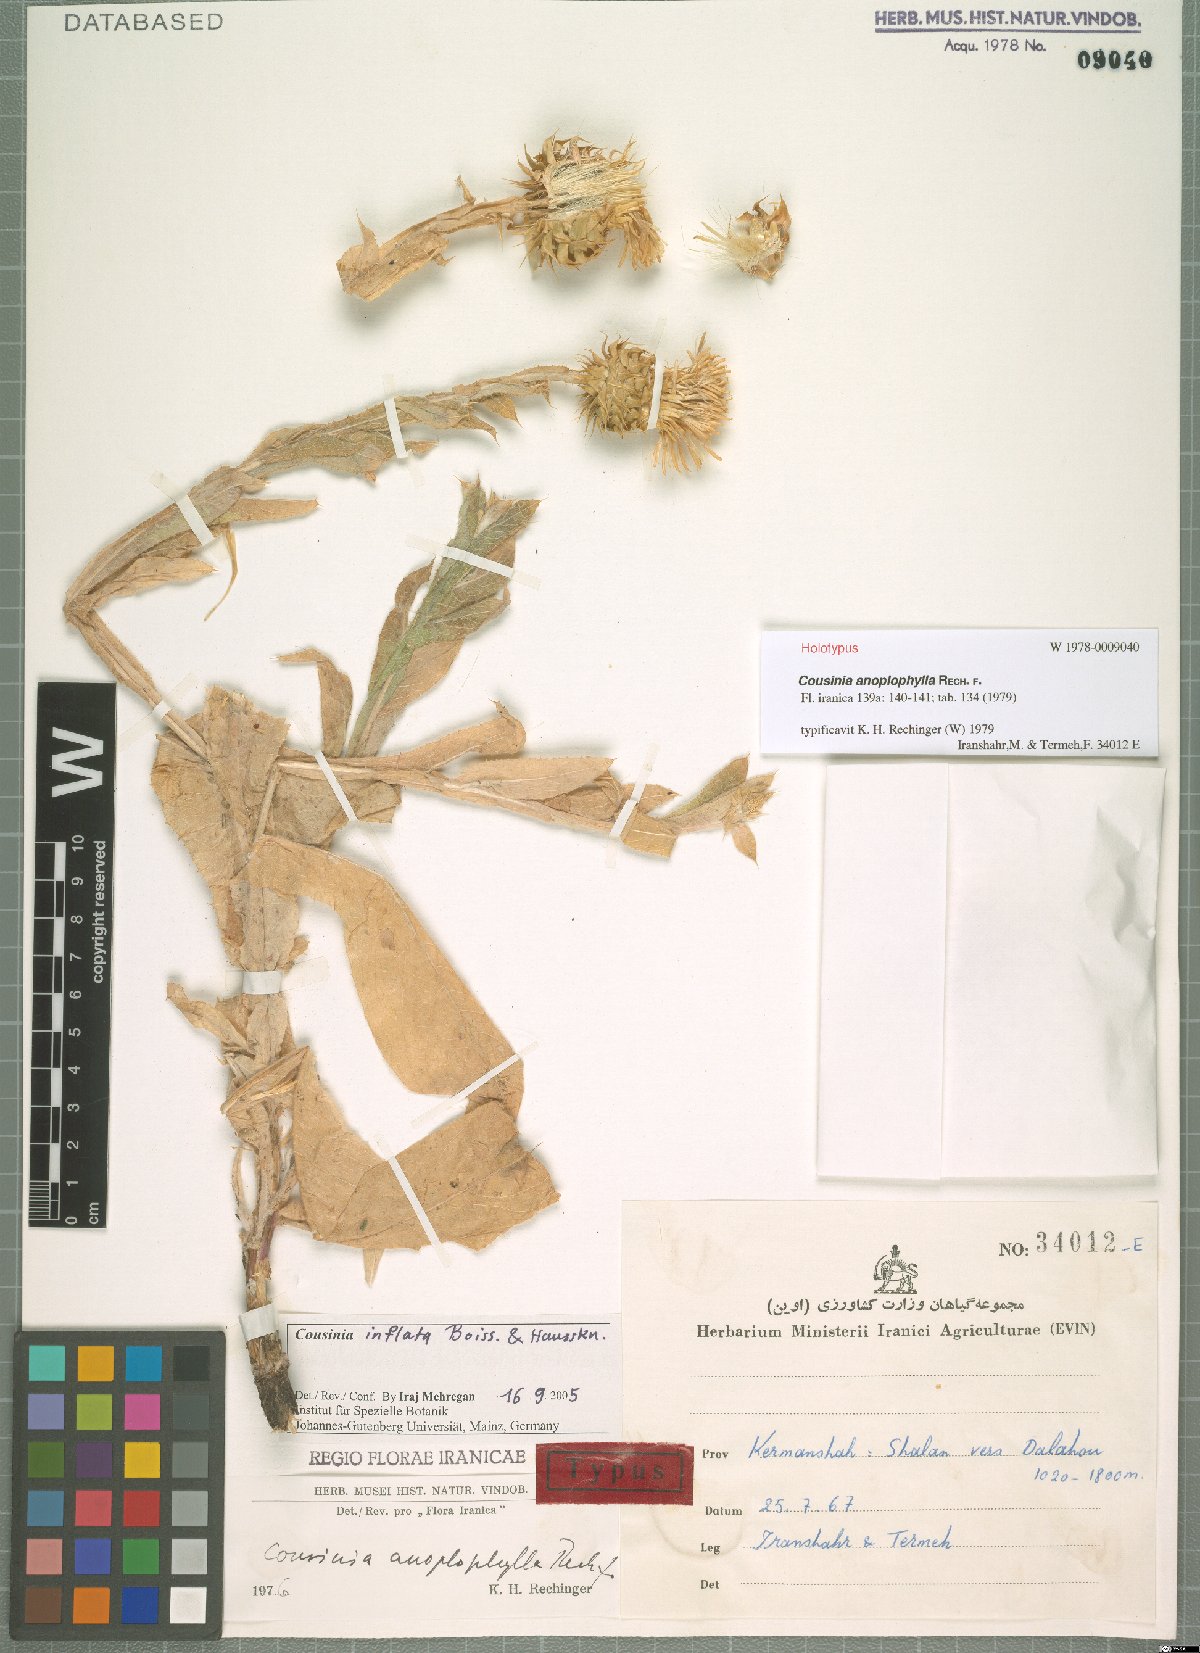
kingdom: Plantae
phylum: Tracheophyta
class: Magnoliopsida
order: Asterales
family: Asteraceae
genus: Cousinia
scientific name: Cousinia anoplophylla
